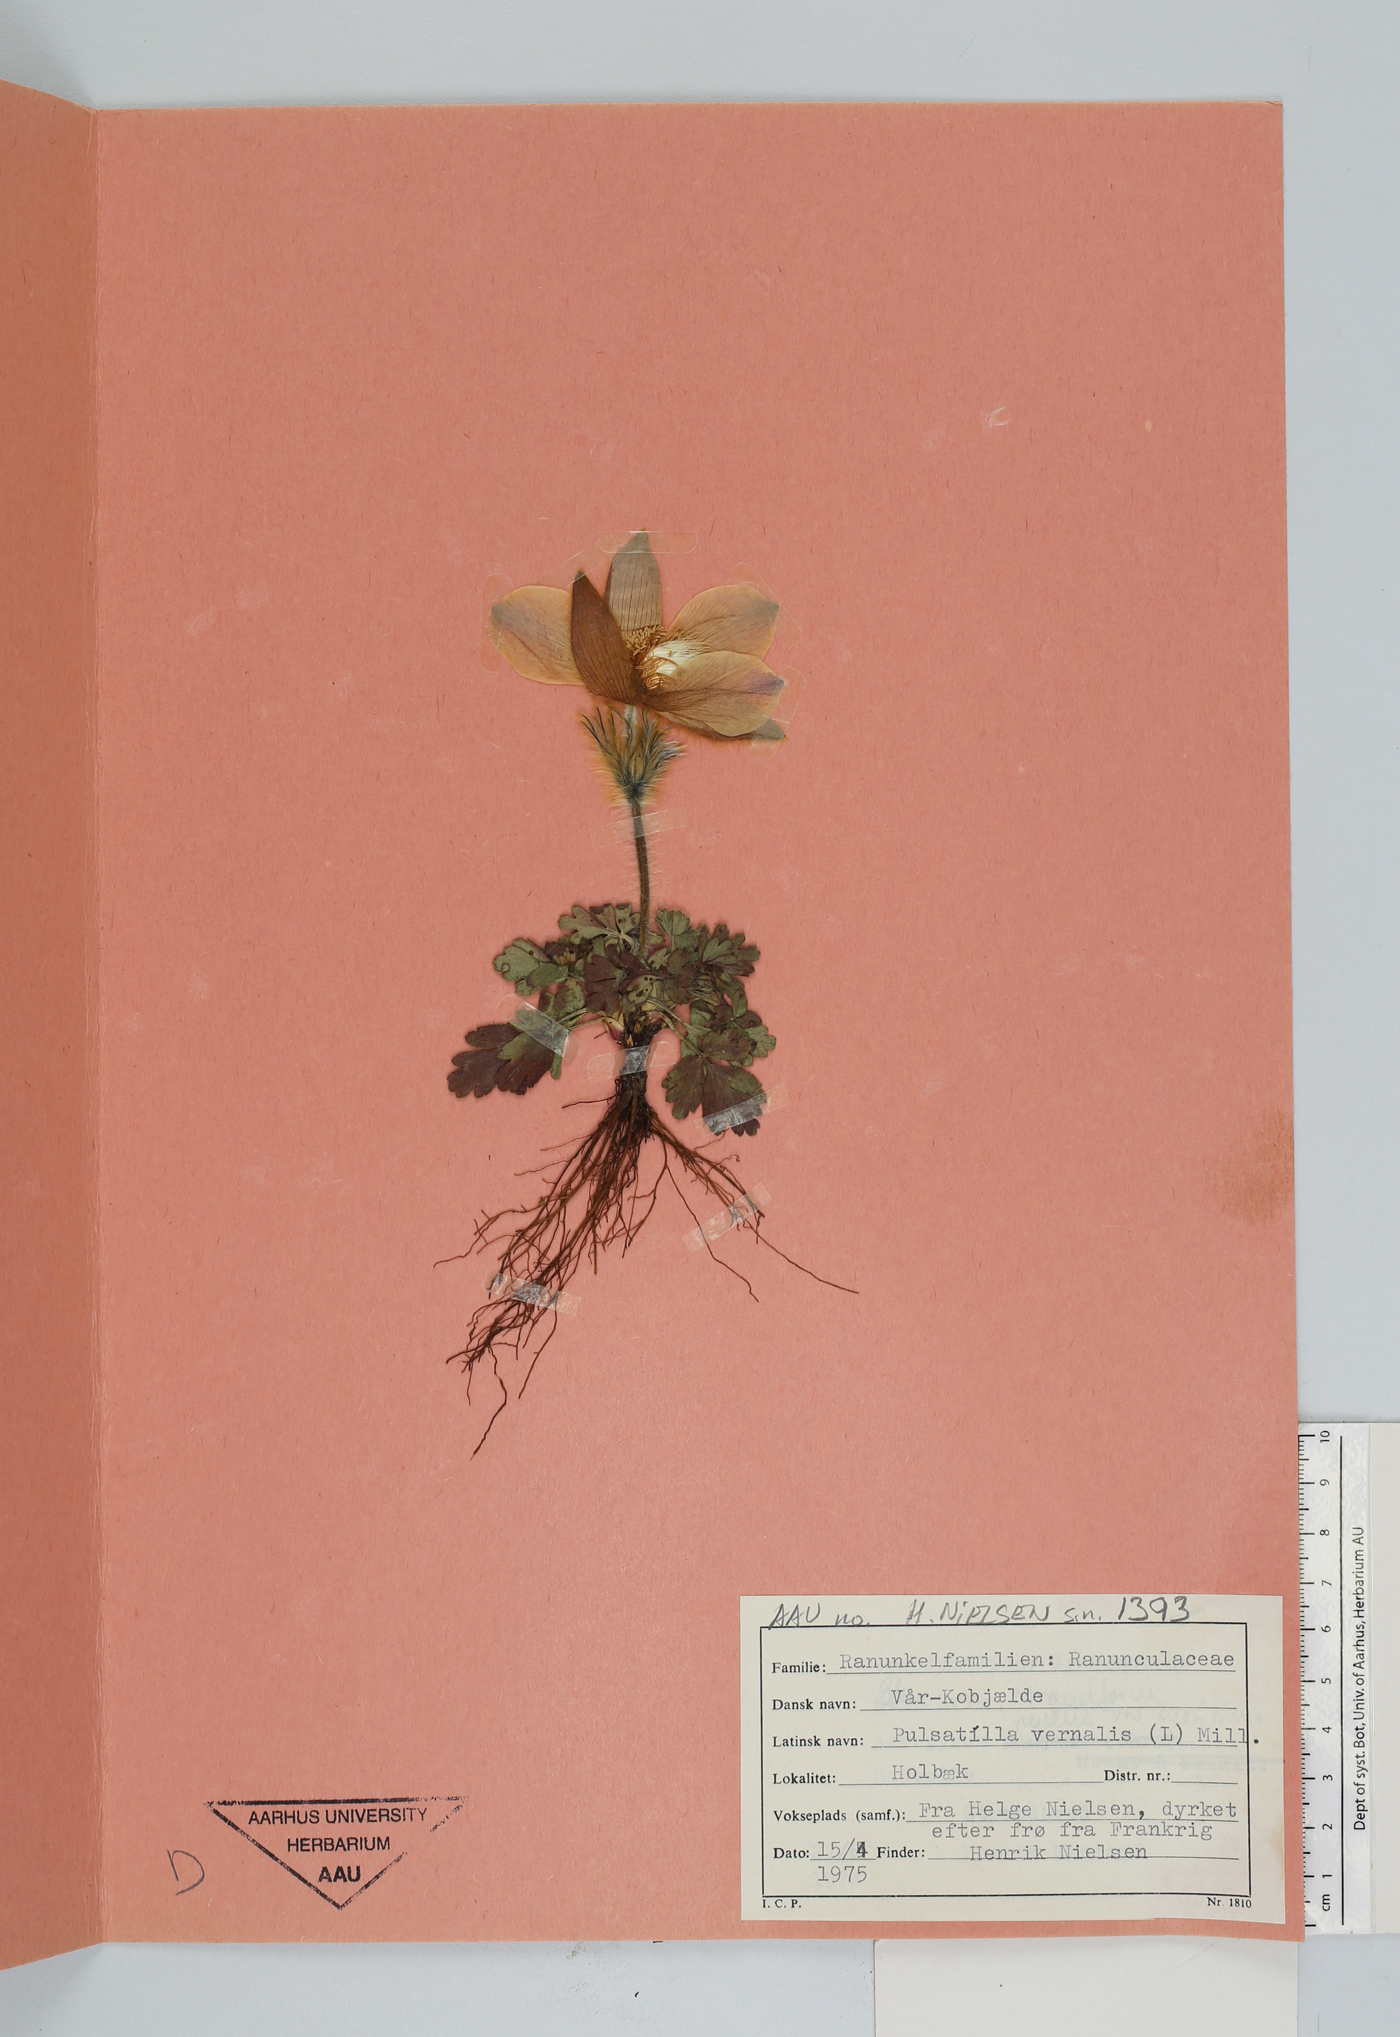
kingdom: Plantae
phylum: Tracheophyta
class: Magnoliopsida
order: Ranunculales
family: Ranunculaceae
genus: Pulsatilla
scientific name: Pulsatilla vernalis
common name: Spring pasque flower
